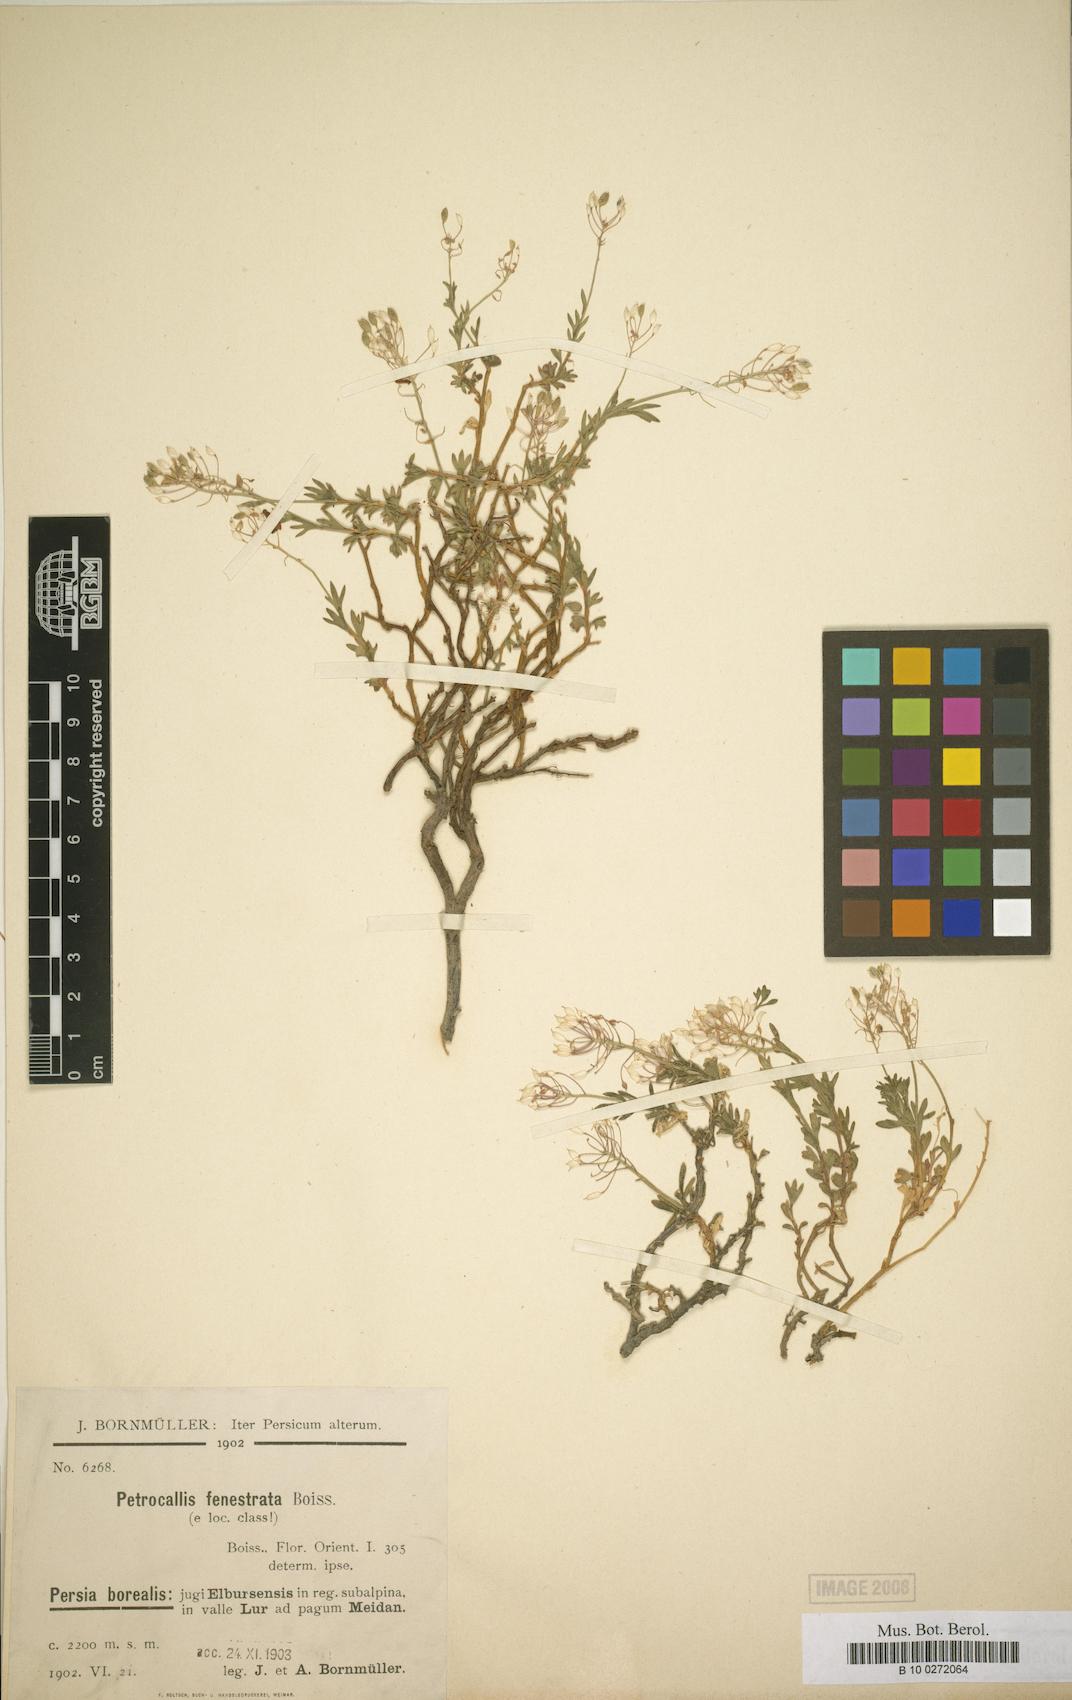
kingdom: Plantae
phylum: Tracheophyta
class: Magnoliopsida
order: Brassicales
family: Brassicaceae
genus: Didymophysa
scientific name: Didymophysa fenestrata
